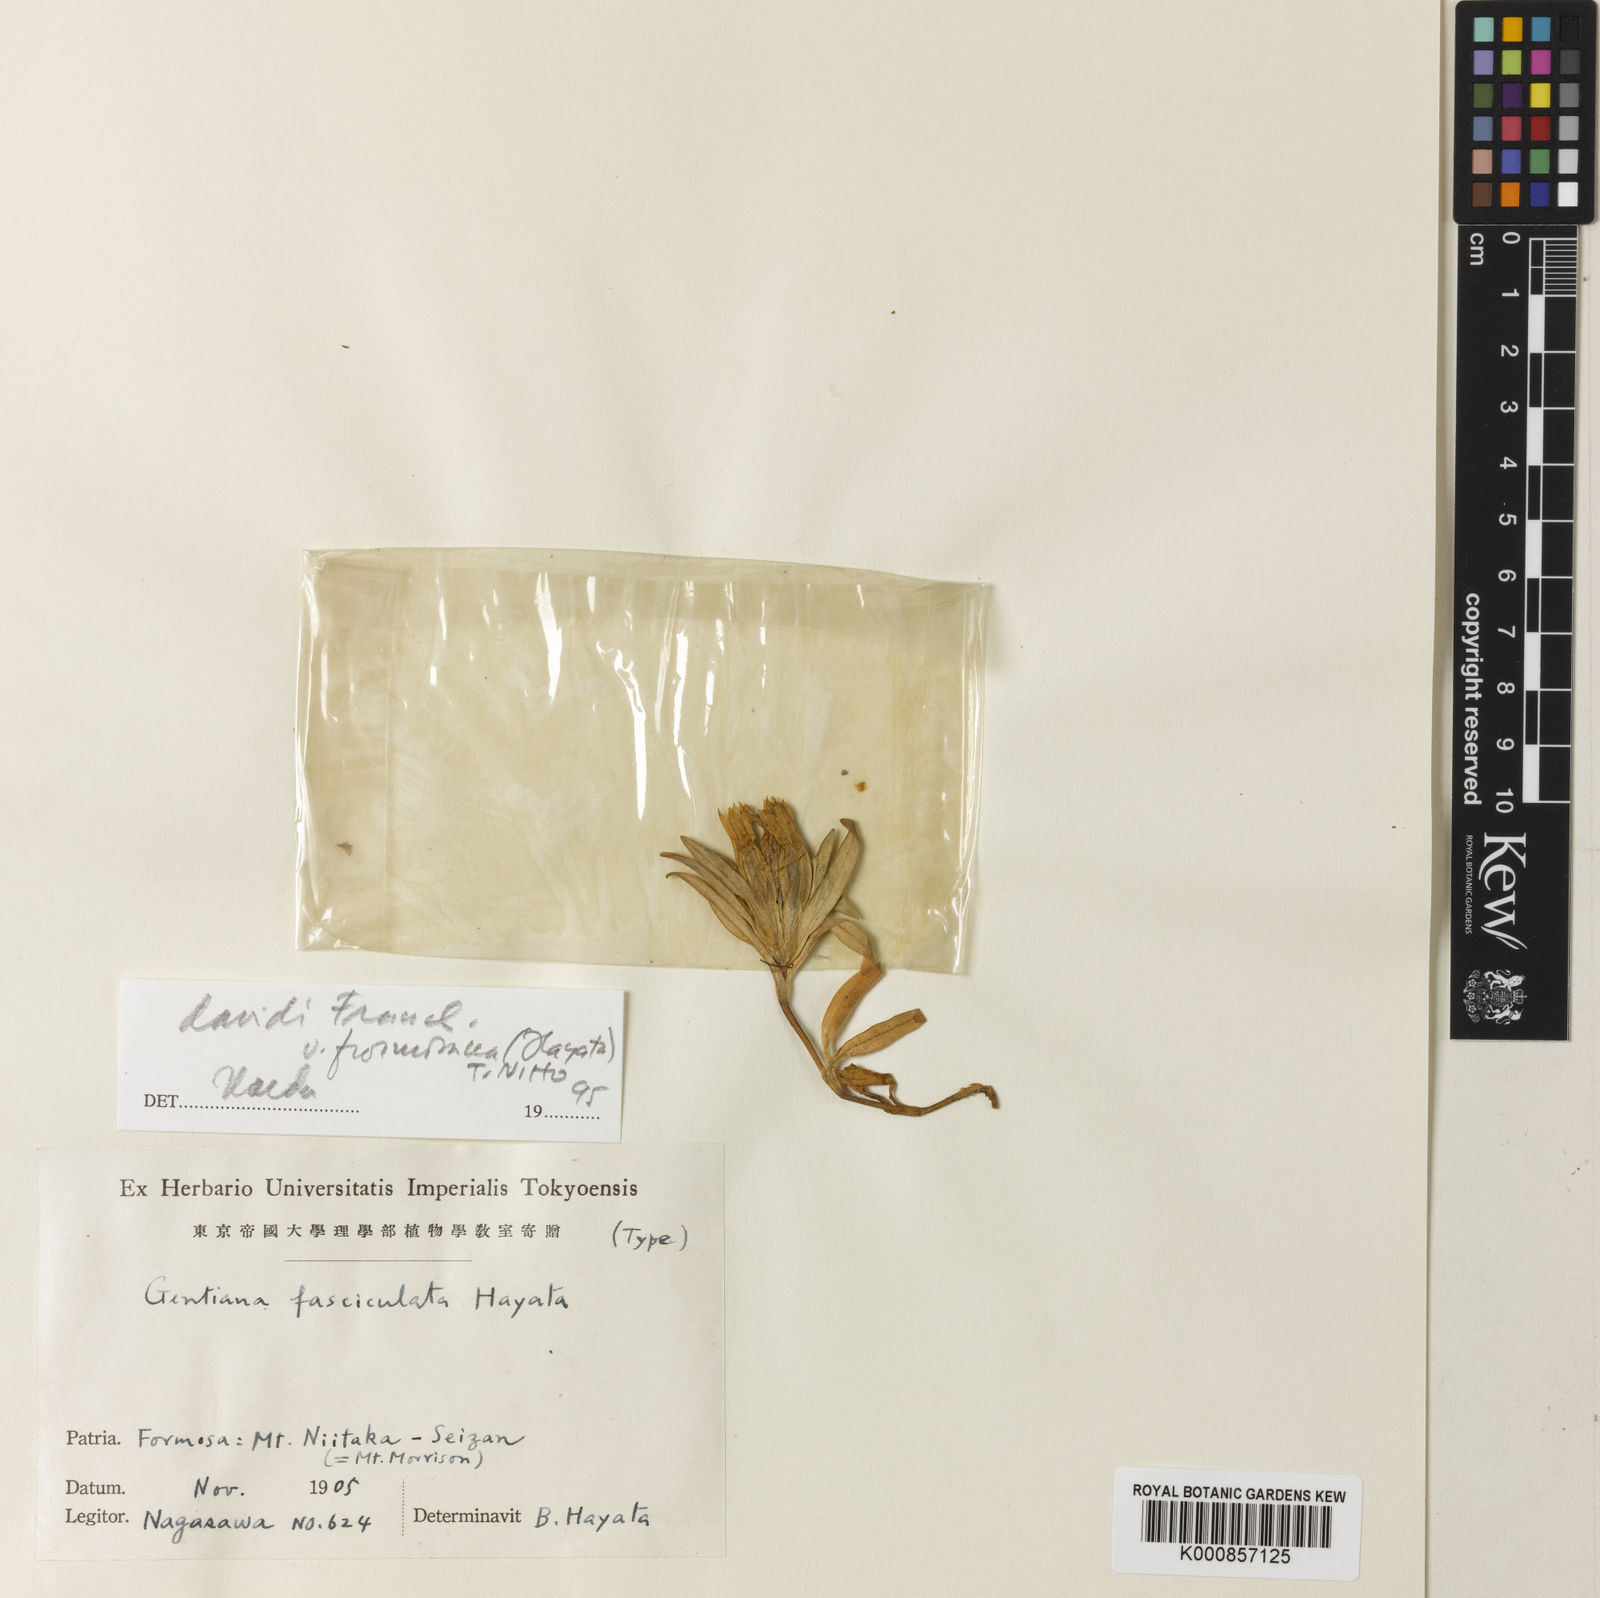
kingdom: Plantae
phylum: Tracheophyta
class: Magnoliopsida
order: Gentianales
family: Gentianaceae
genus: Gentiana
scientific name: Gentiana davidii
